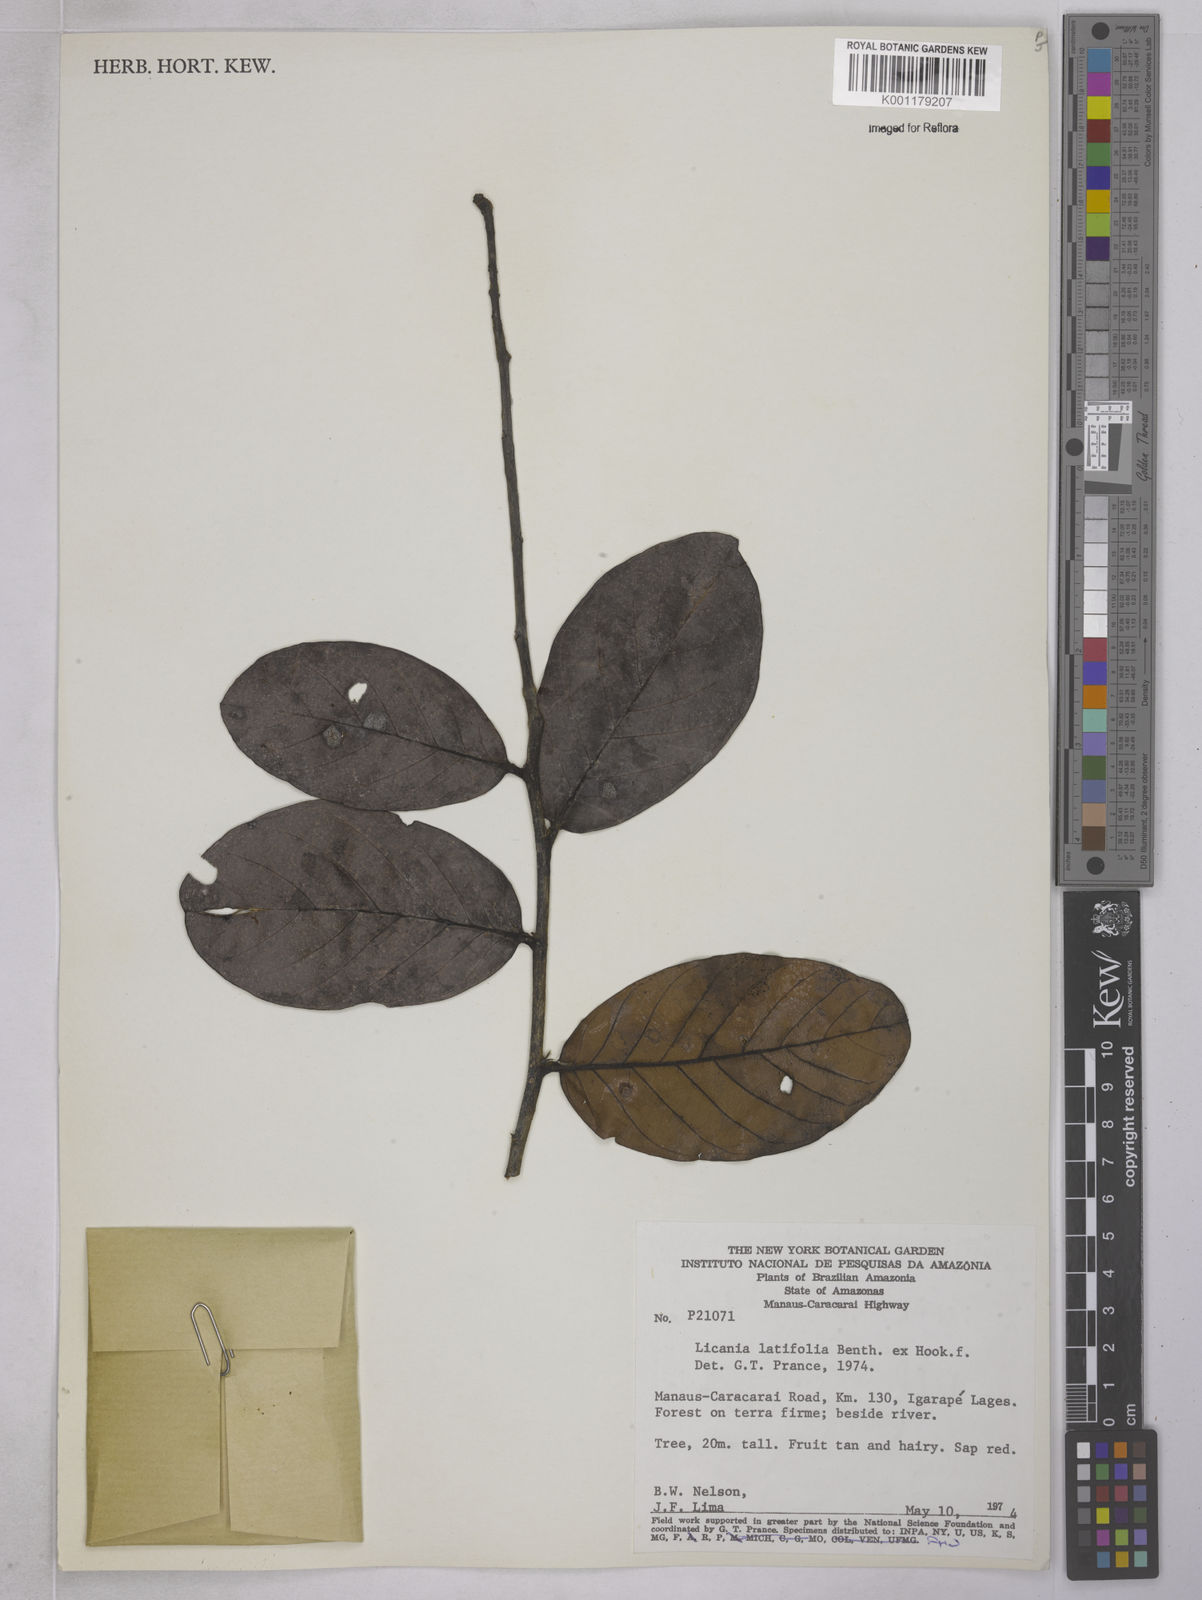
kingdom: Plantae
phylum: Tracheophyta
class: Magnoliopsida
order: Malpighiales
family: Chrysobalanaceae
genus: Hymenopus
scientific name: Hymenopus latifolius
